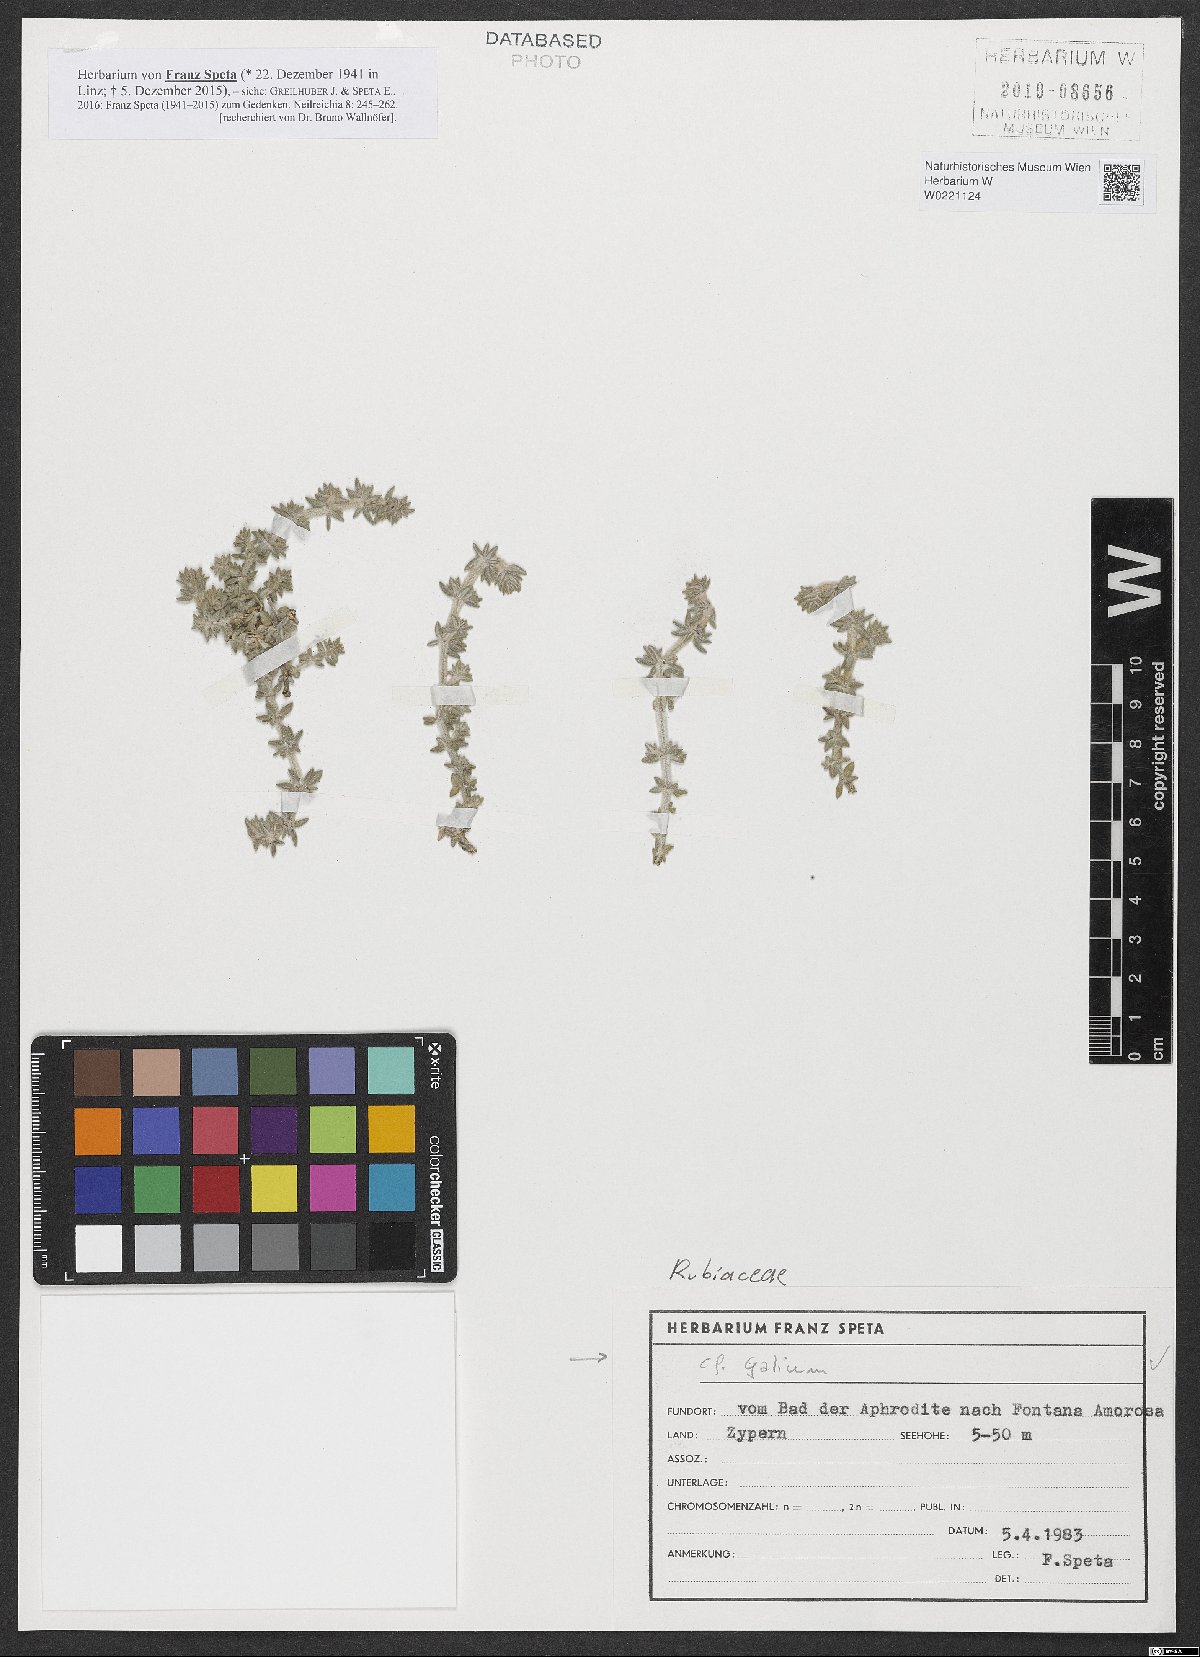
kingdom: Plantae
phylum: Tracheophyta
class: Magnoliopsida
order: Gentianales
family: Rubiaceae
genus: Galium
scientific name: Galium
